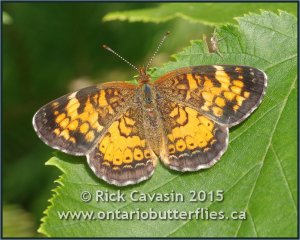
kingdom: Animalia
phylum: Arthropoda
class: Insecta
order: Lepidoptera
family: Nymphalidae
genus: Phyciodes
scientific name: Phyciodes tharos
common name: Northern Crescent
